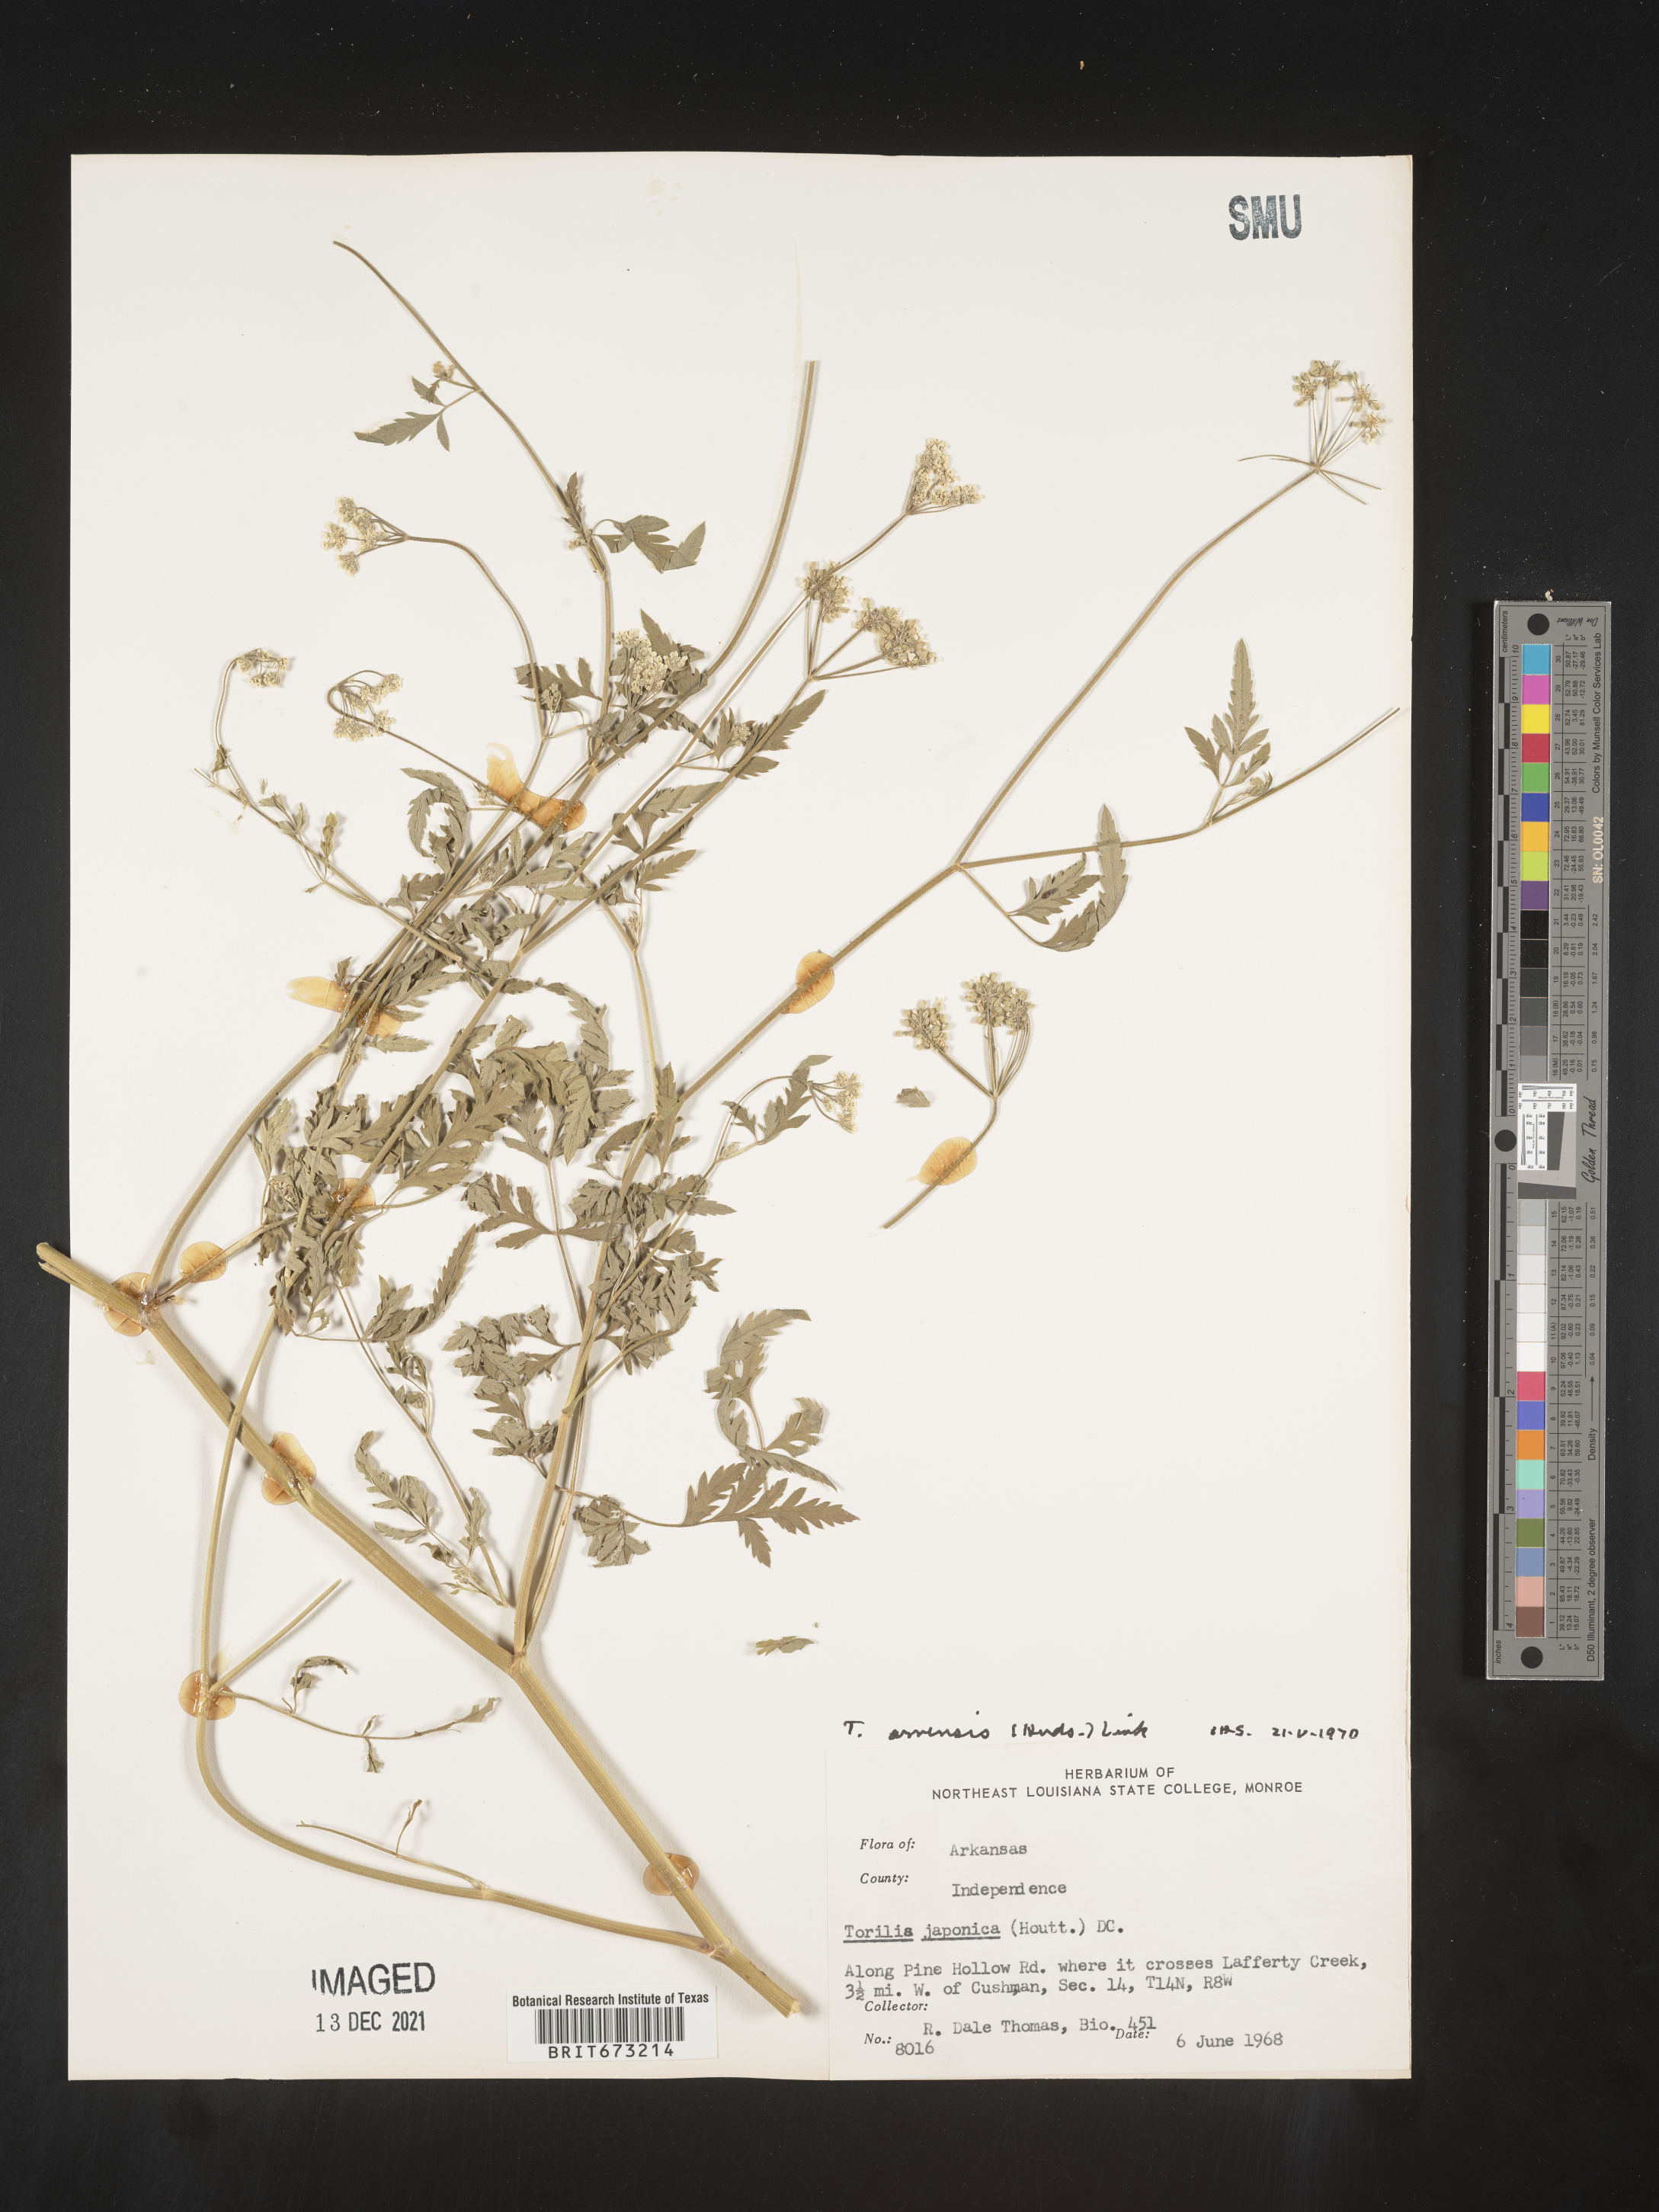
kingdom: Plantae
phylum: Tracheophyta
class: Magnoliopsida
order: Apiales
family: Apiaceae
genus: Torilis
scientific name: Torilis arvensis
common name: Spreading hedge-parsley
